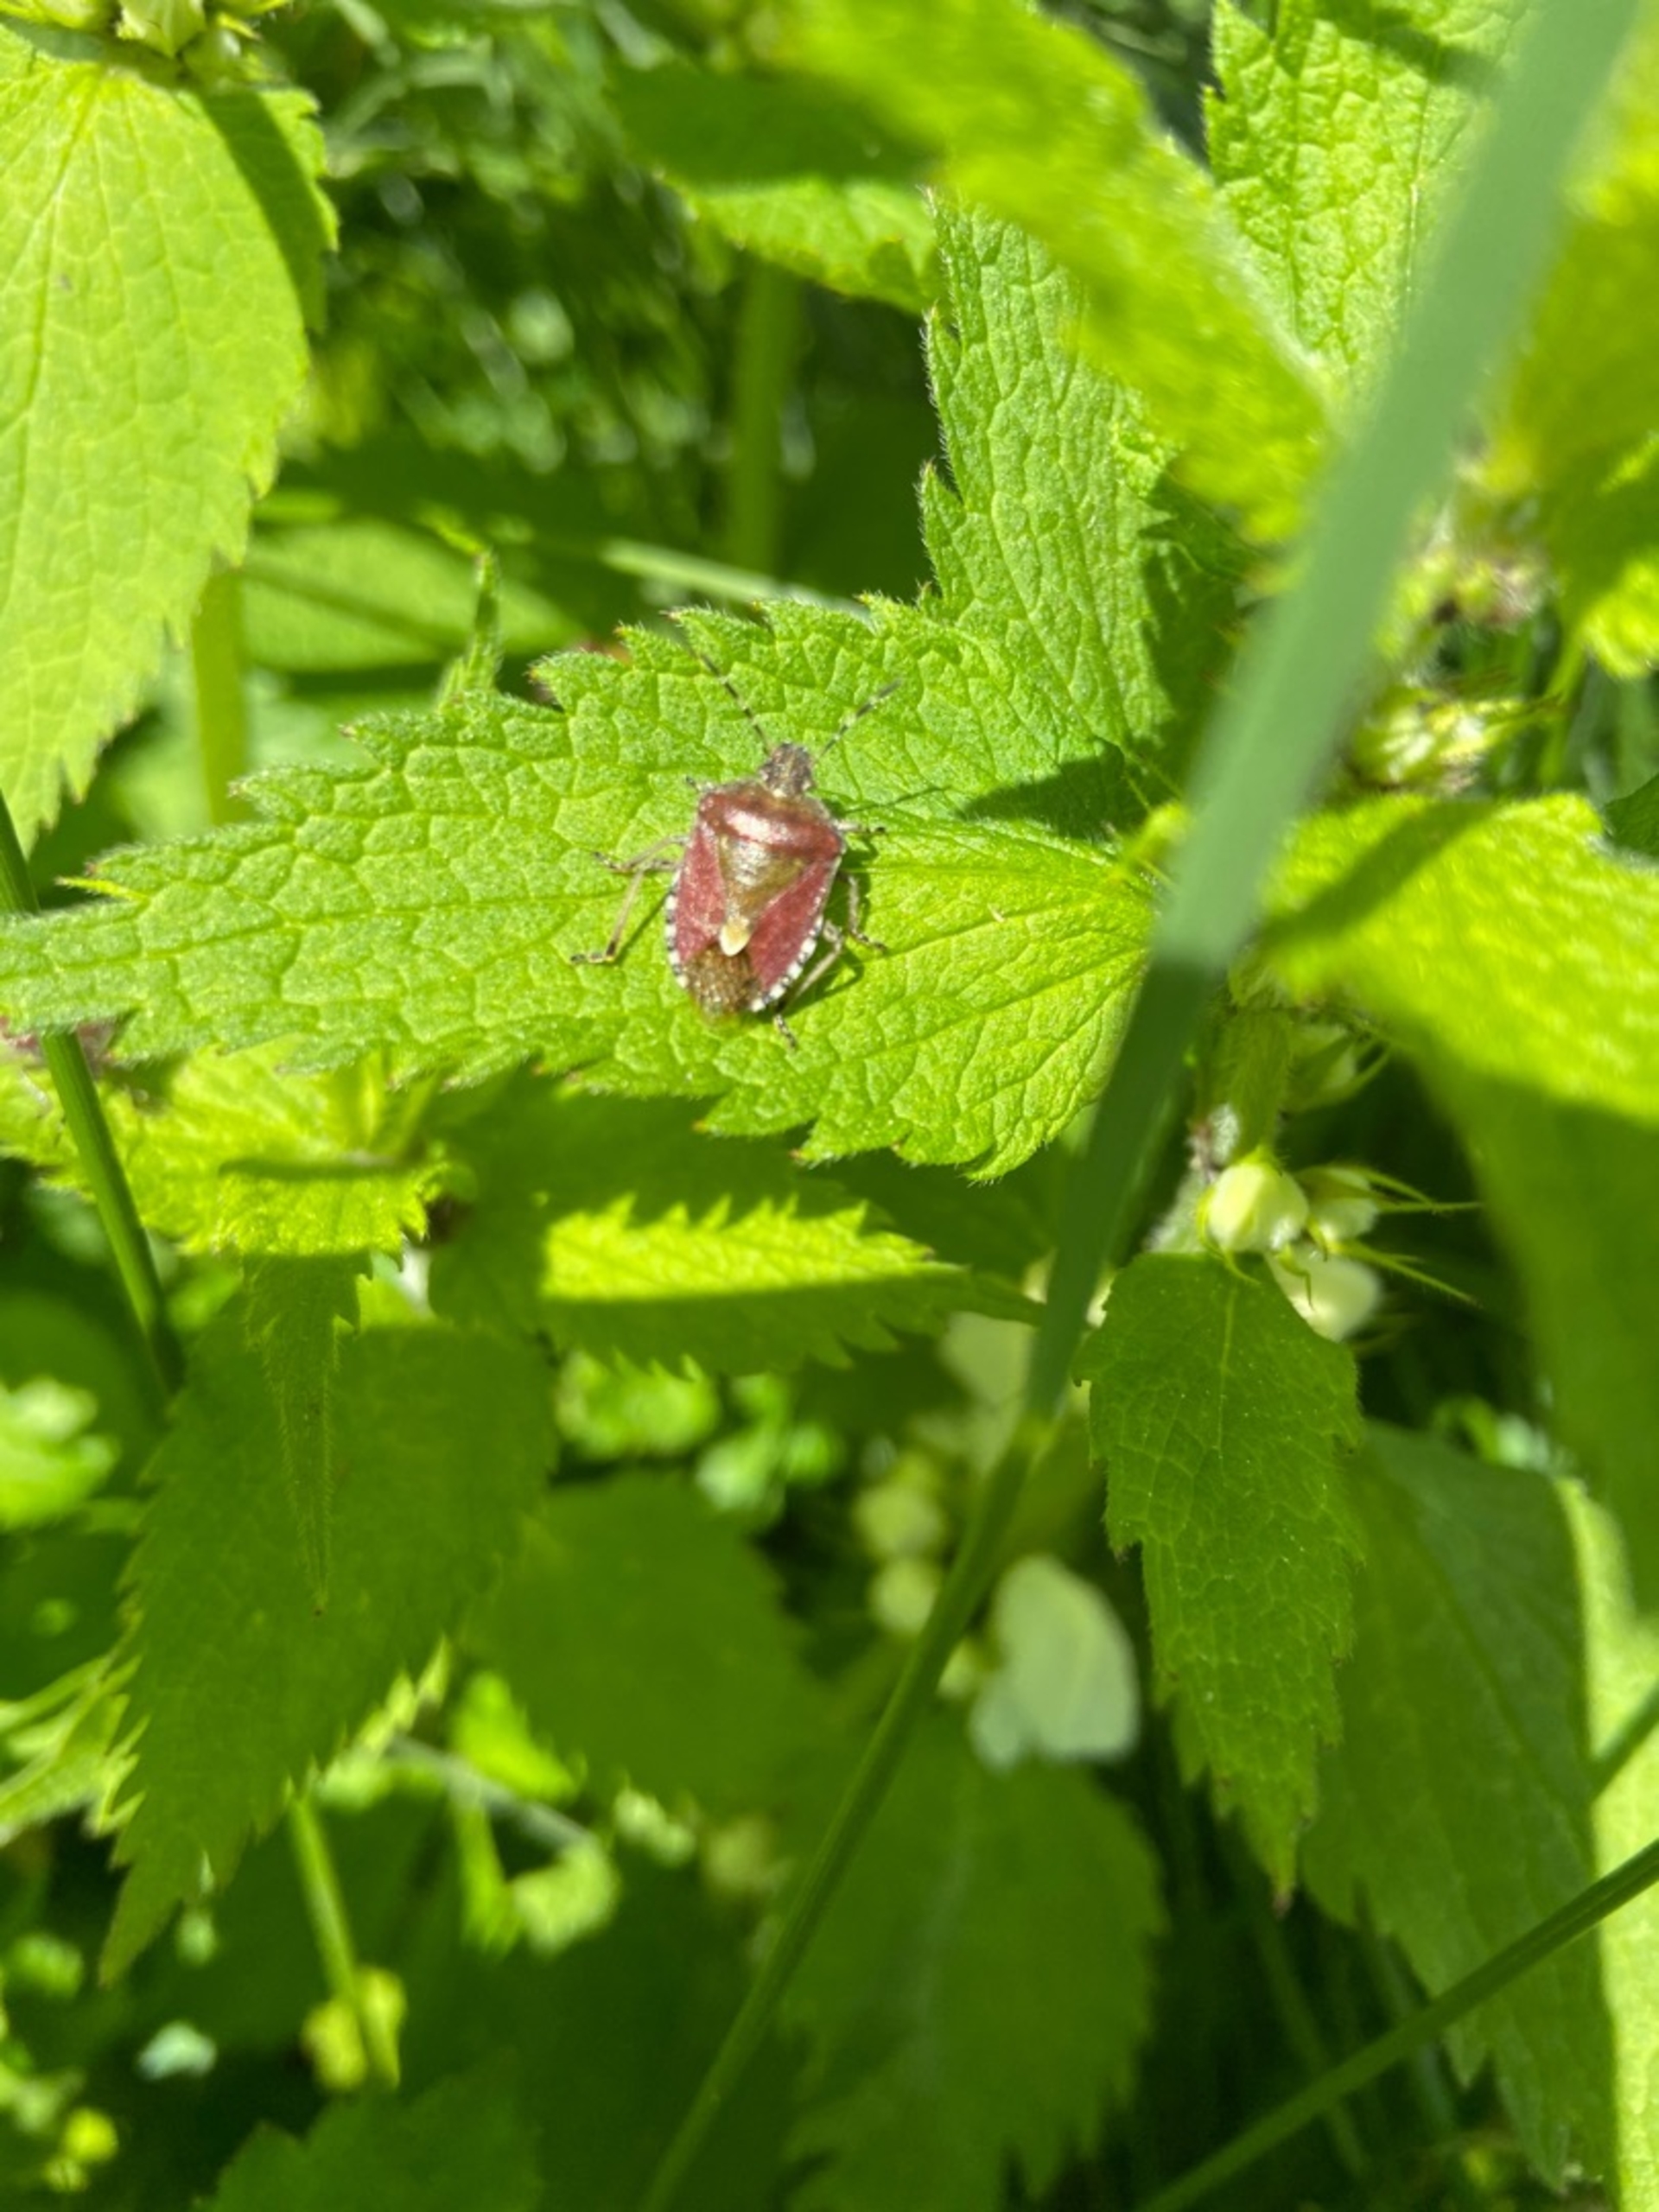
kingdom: Animalia
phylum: Arthropoda
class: Insecta
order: Hemiptera
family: Pentatomidae
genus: Dolycoris
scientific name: Dolycoris baccarum
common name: Almindelig bærtæge
